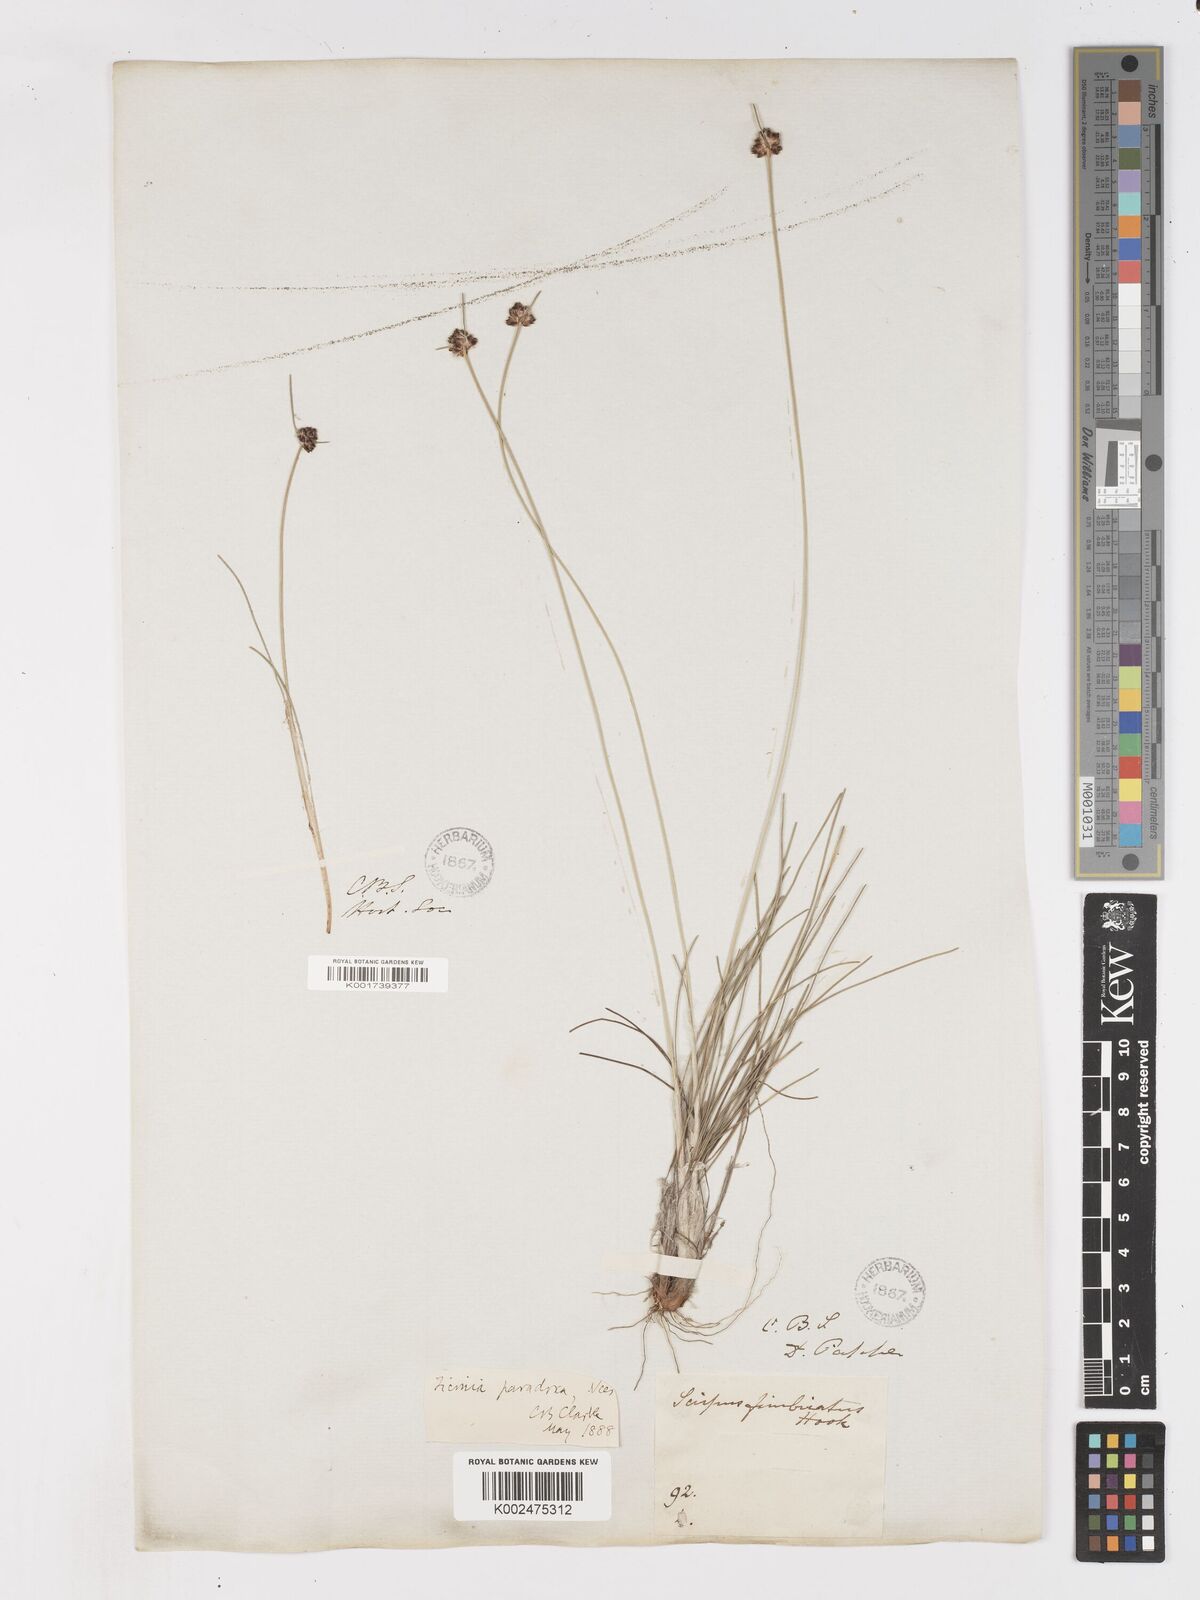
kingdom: Plantae
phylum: Tracheophyta
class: Liliopsida
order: Poales
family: Cyperaceae
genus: Ficinia
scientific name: Ficinia paradoxa
